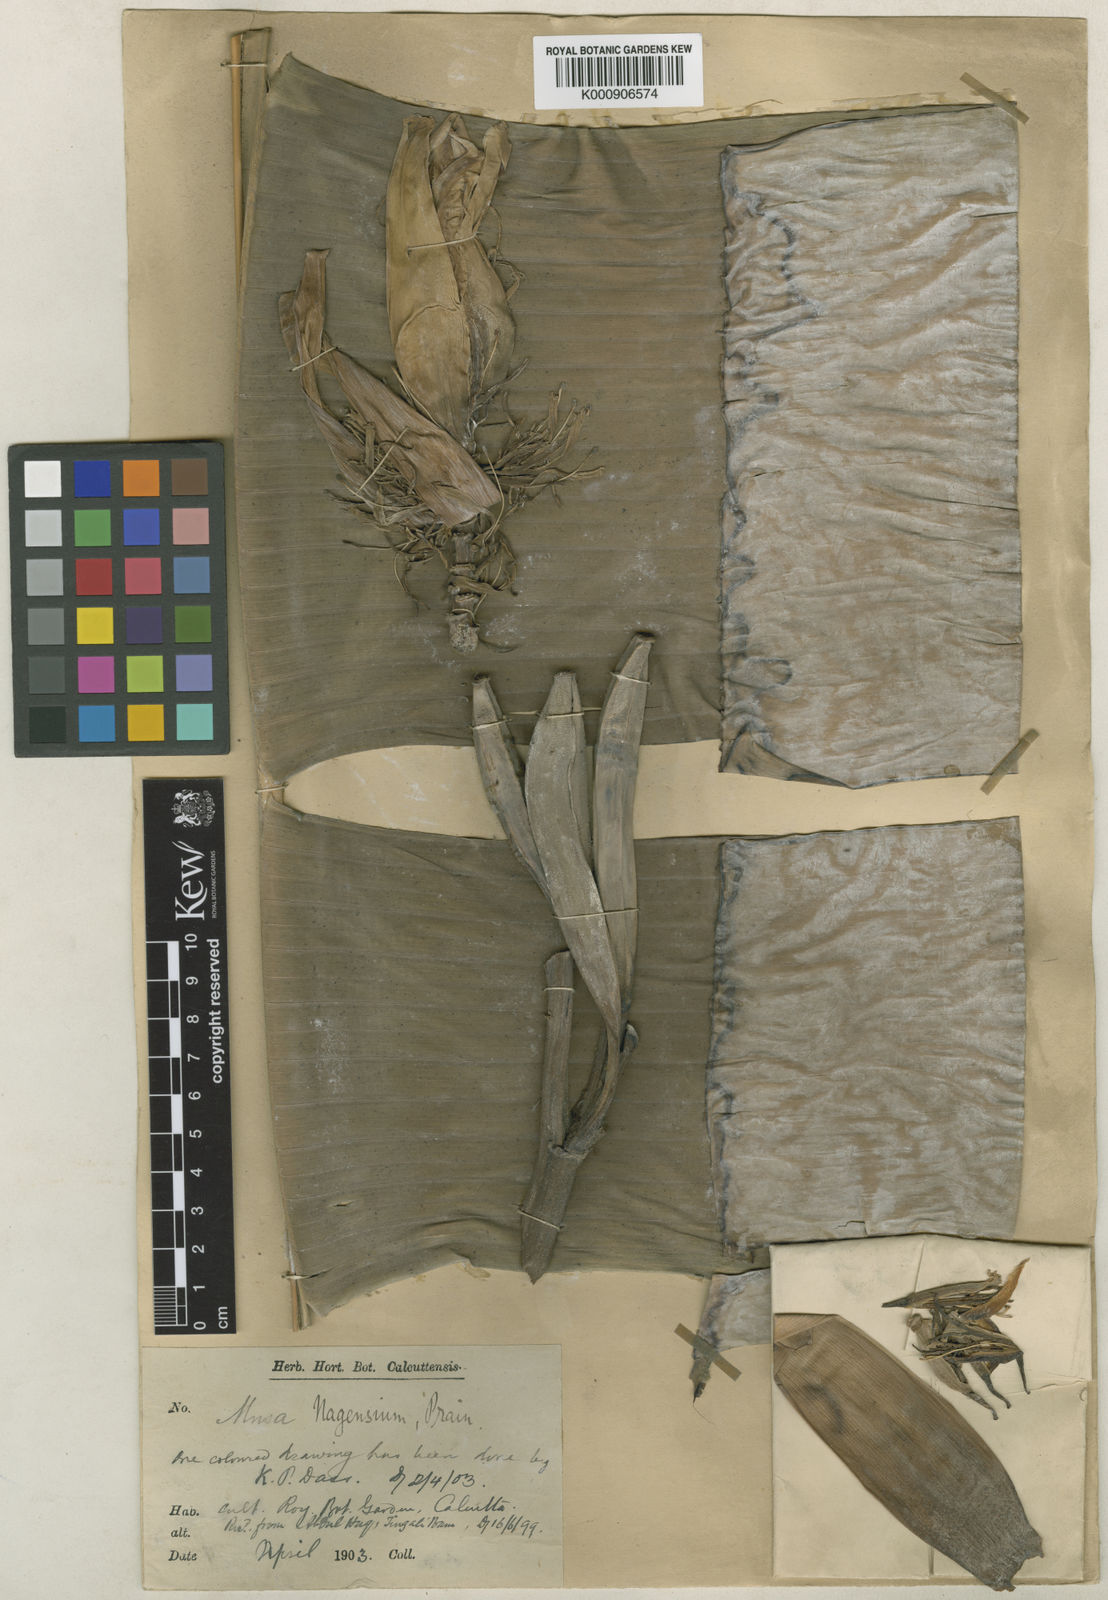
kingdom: Plantae
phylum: Tracheophyta
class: Liliopsida
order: Zingiberales
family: Musaceae
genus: Musa
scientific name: Musa nagensium
